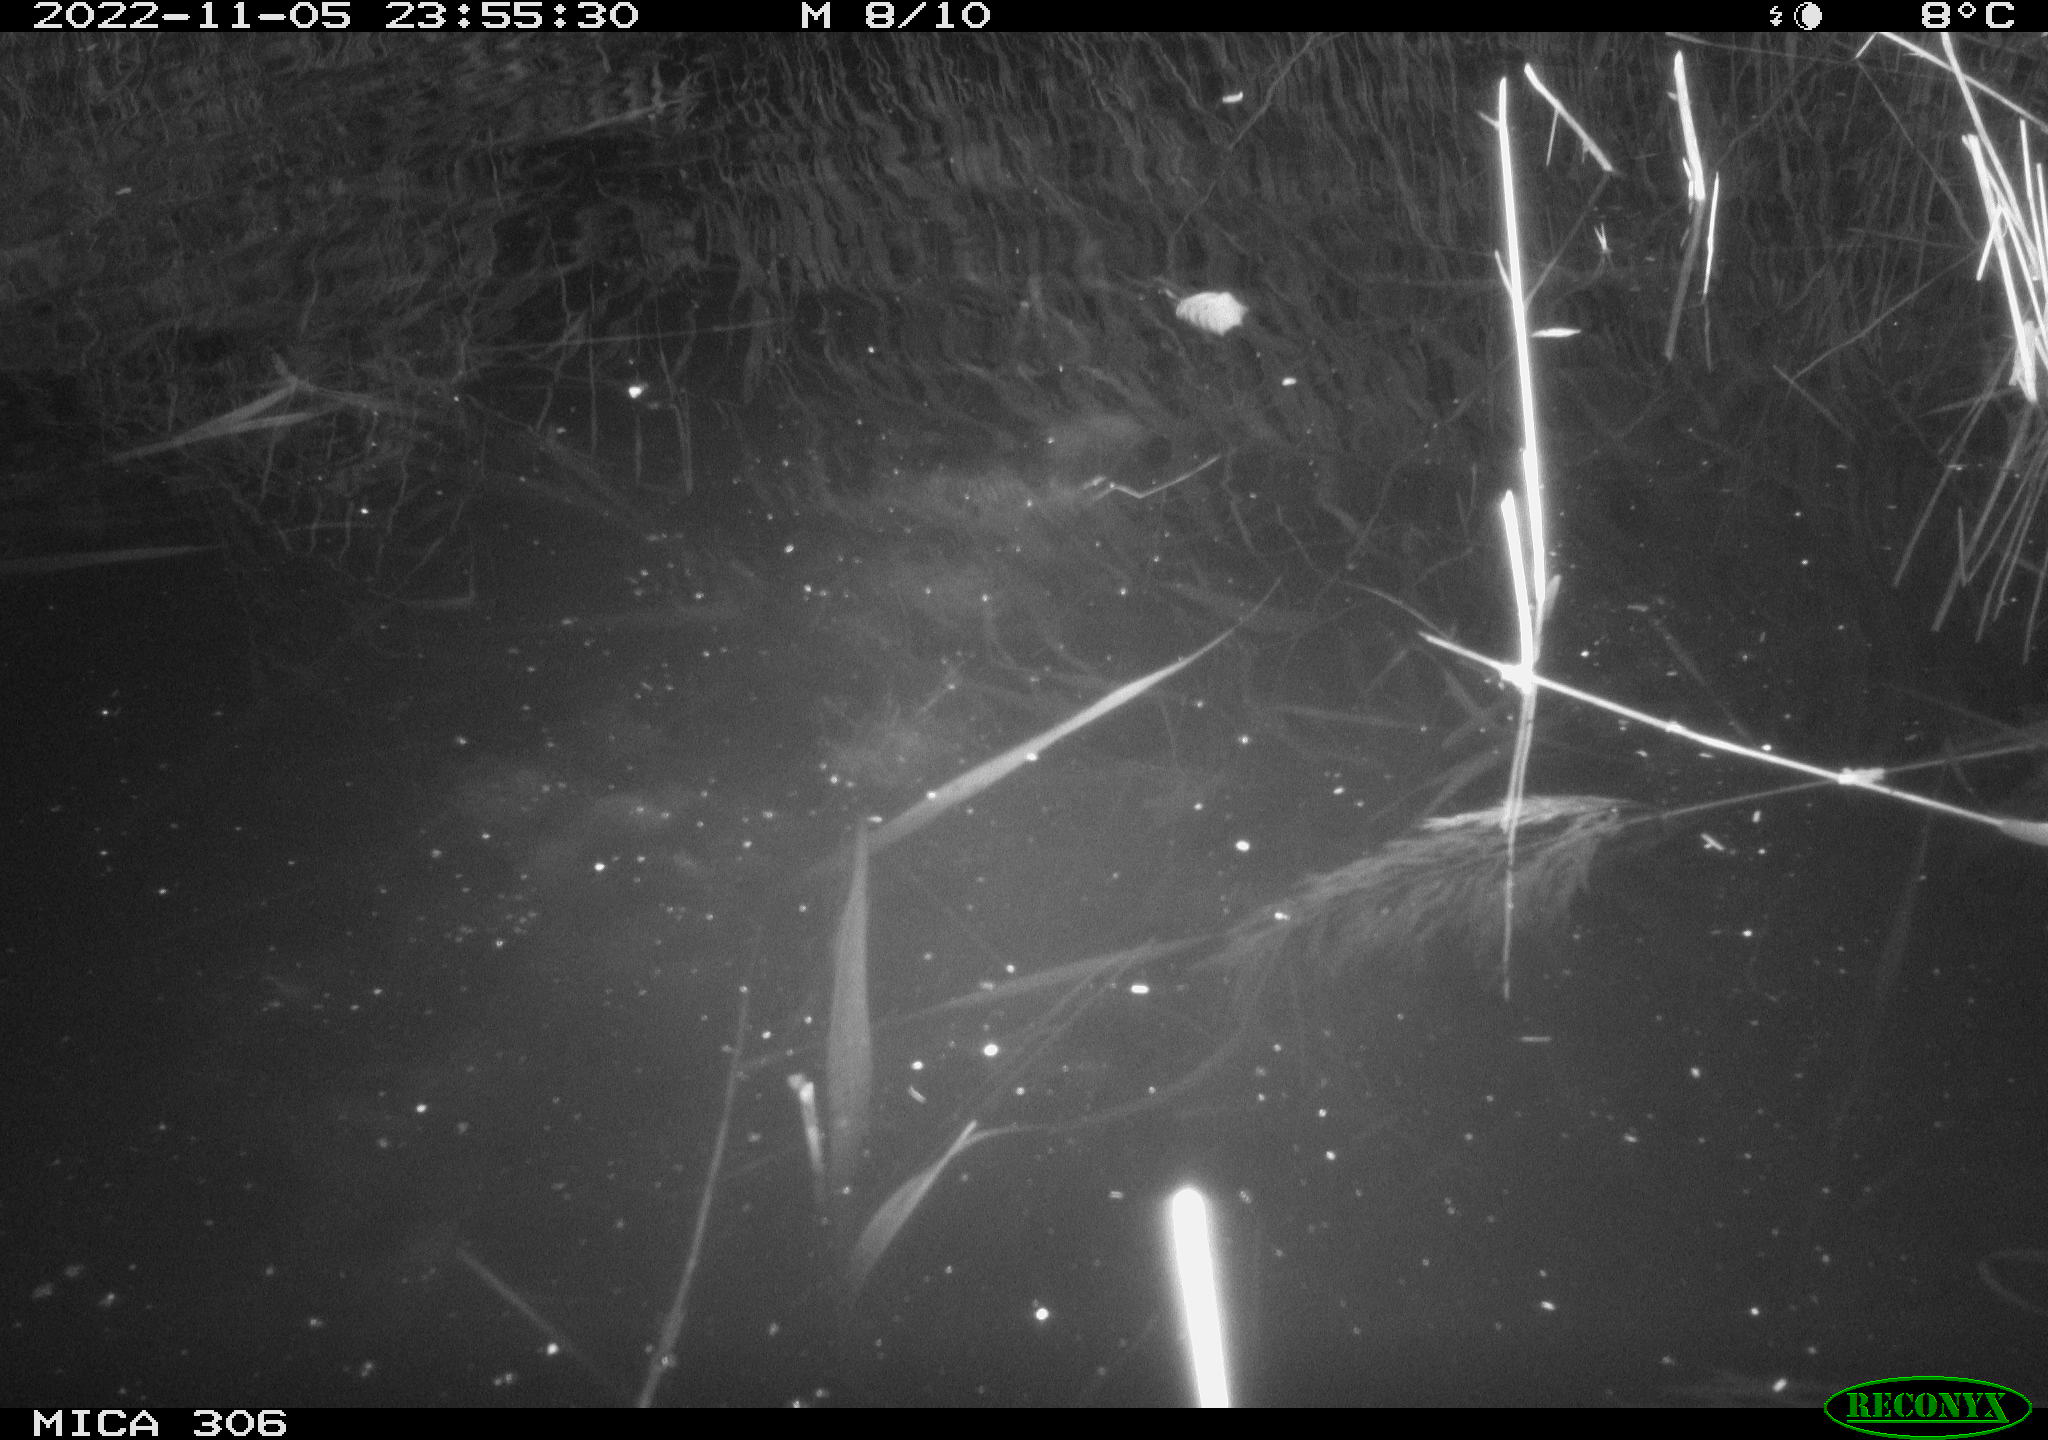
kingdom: Animalia
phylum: Chordata
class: Mammalia
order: Rodentia
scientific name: Rodentia
